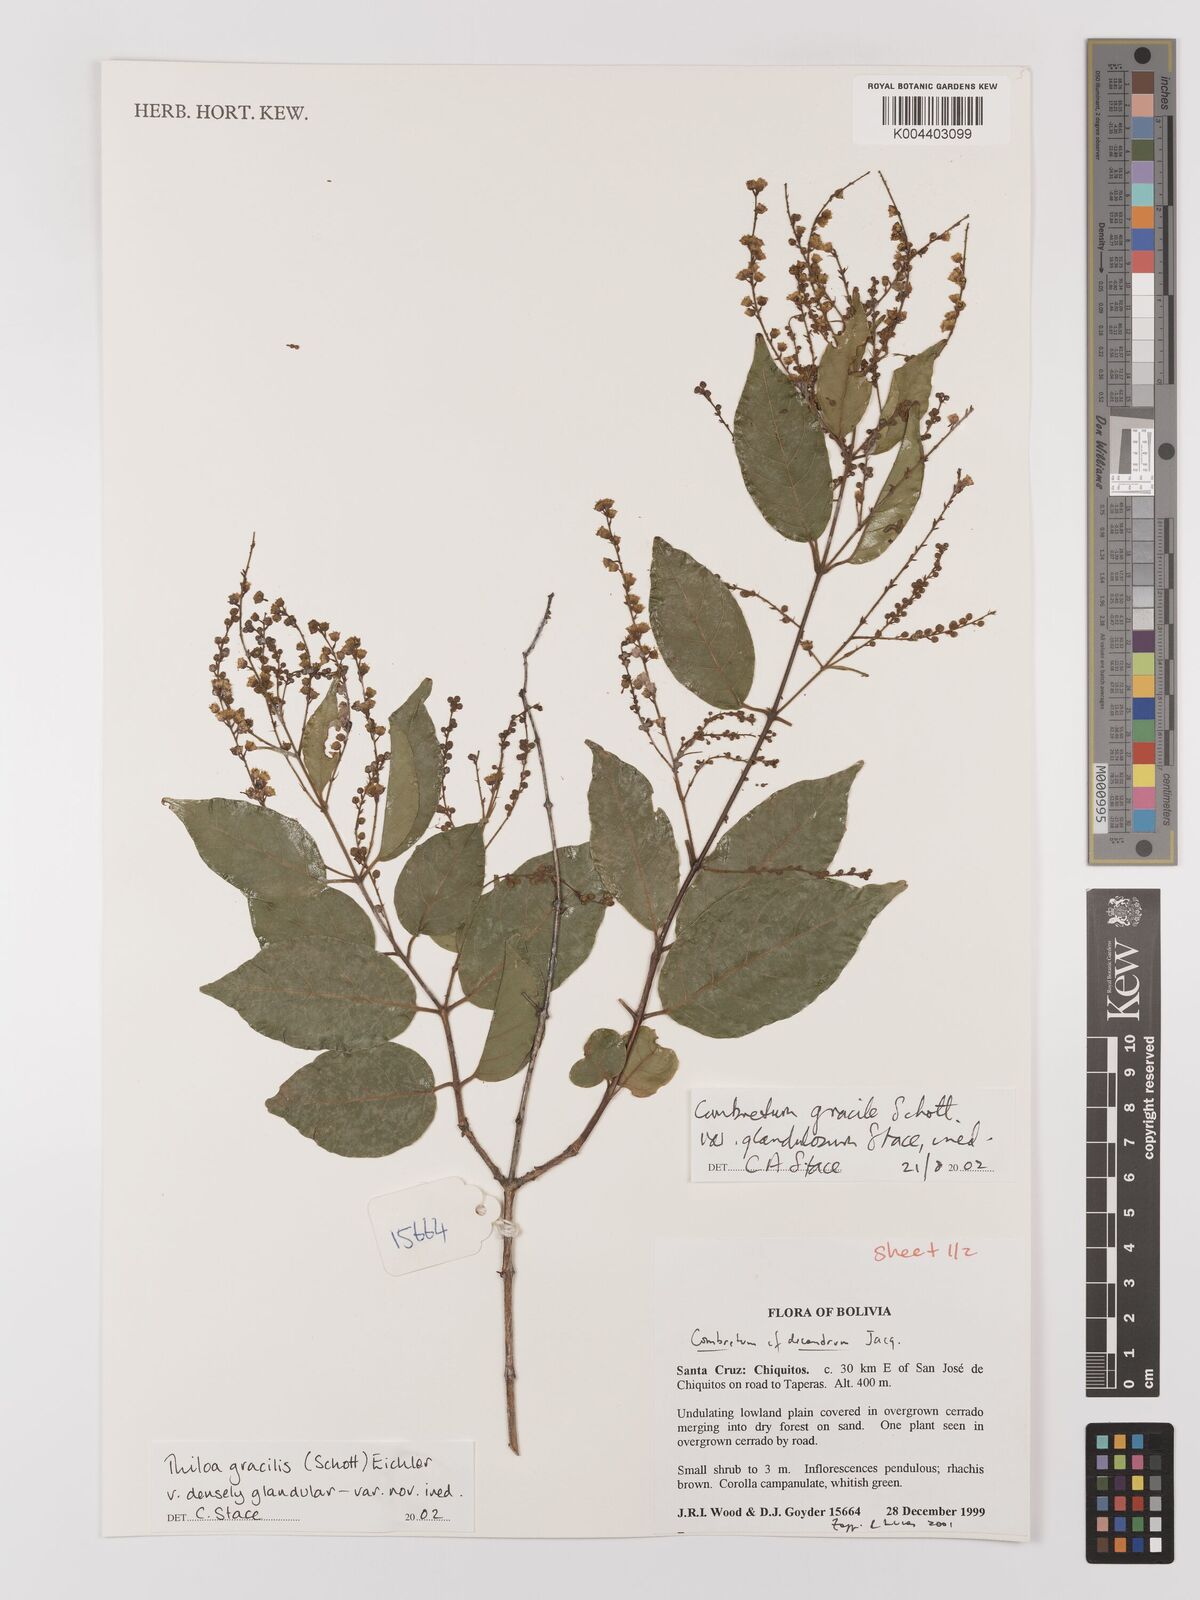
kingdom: Plantae
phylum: Tracheophyta
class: Magnoliopsida
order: Myrtales
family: Combretaceae
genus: Combretum
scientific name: Combretum gracile
